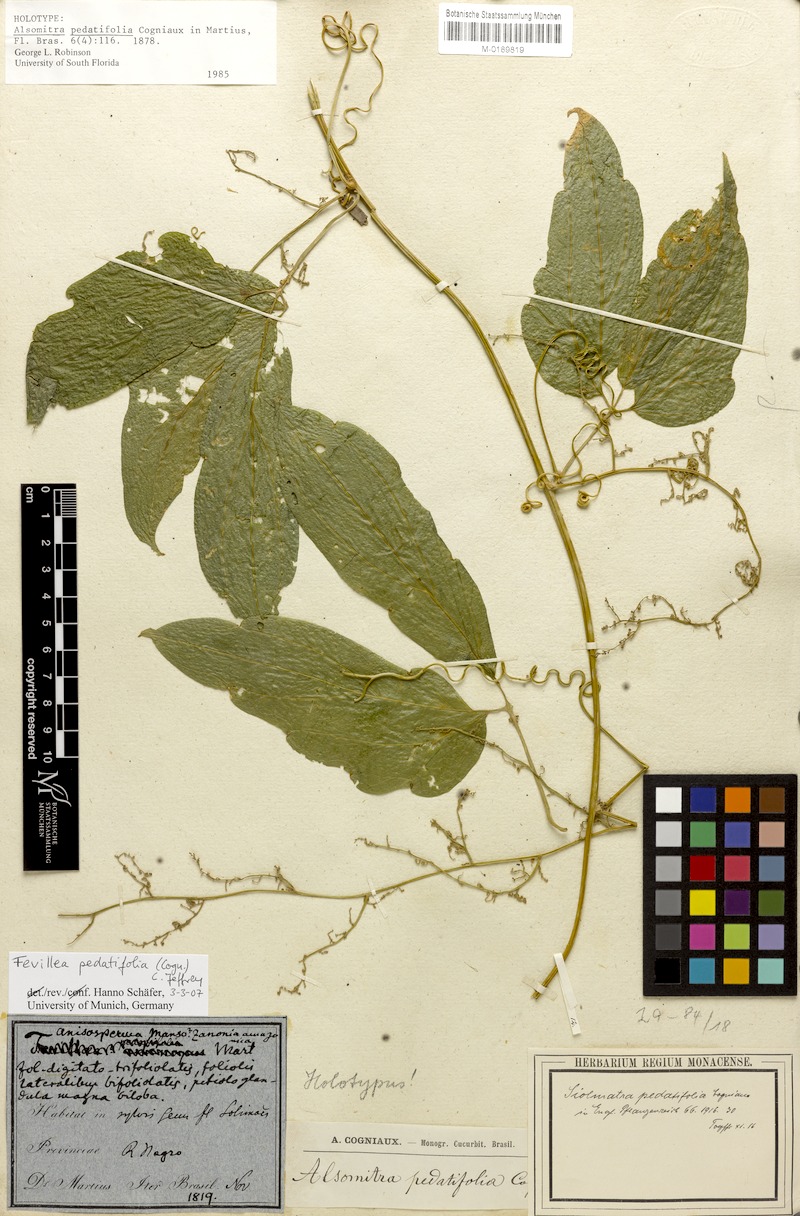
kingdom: Plantae
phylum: Tracheophyta
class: Magnoliopsida
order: Cucurbitales
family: Cucurbitaceae
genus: Fevillea
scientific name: Fevillea pedatifolia
